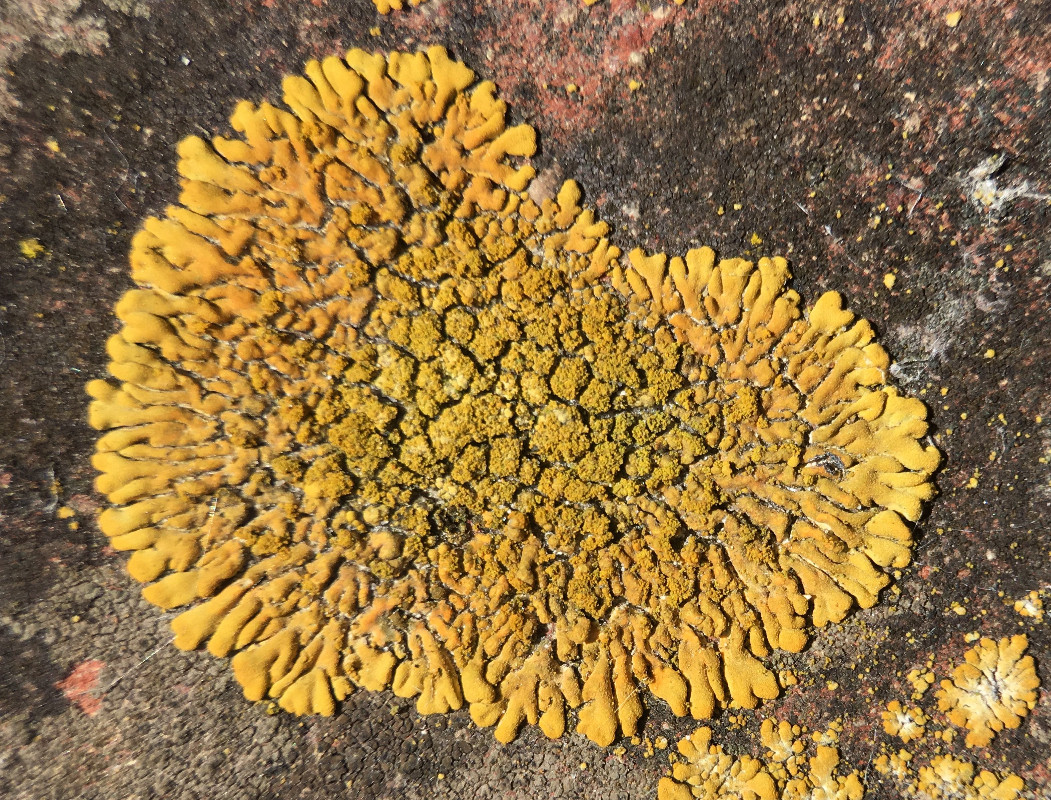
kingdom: Fungi
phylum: Ascomycota
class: Lecanoromycetes
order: Teloschistales
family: Teloschistaceae
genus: Calogaya
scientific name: Calogaya decipiens
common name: knudret orangelav
